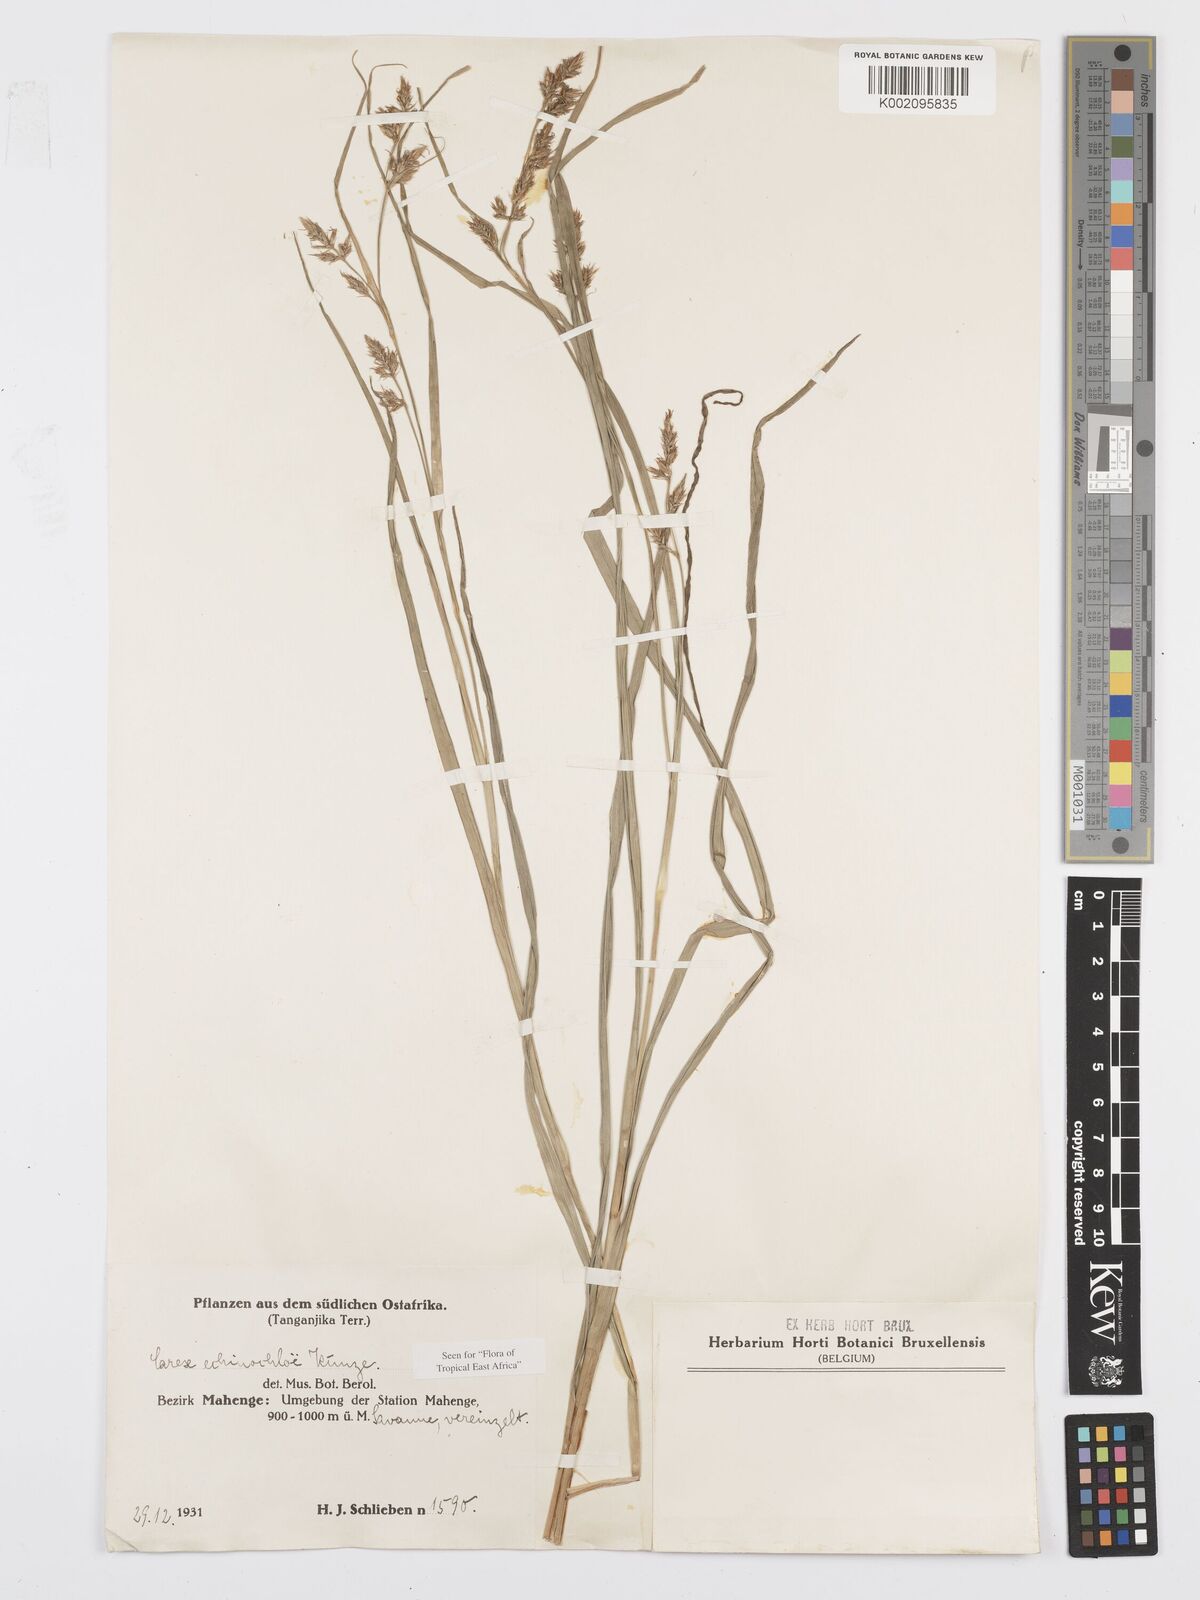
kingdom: Plantae
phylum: Tracheophyta
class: Liliopsida
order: Poales
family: Cyperaceae
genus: Carex
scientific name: Carex echinochloe
